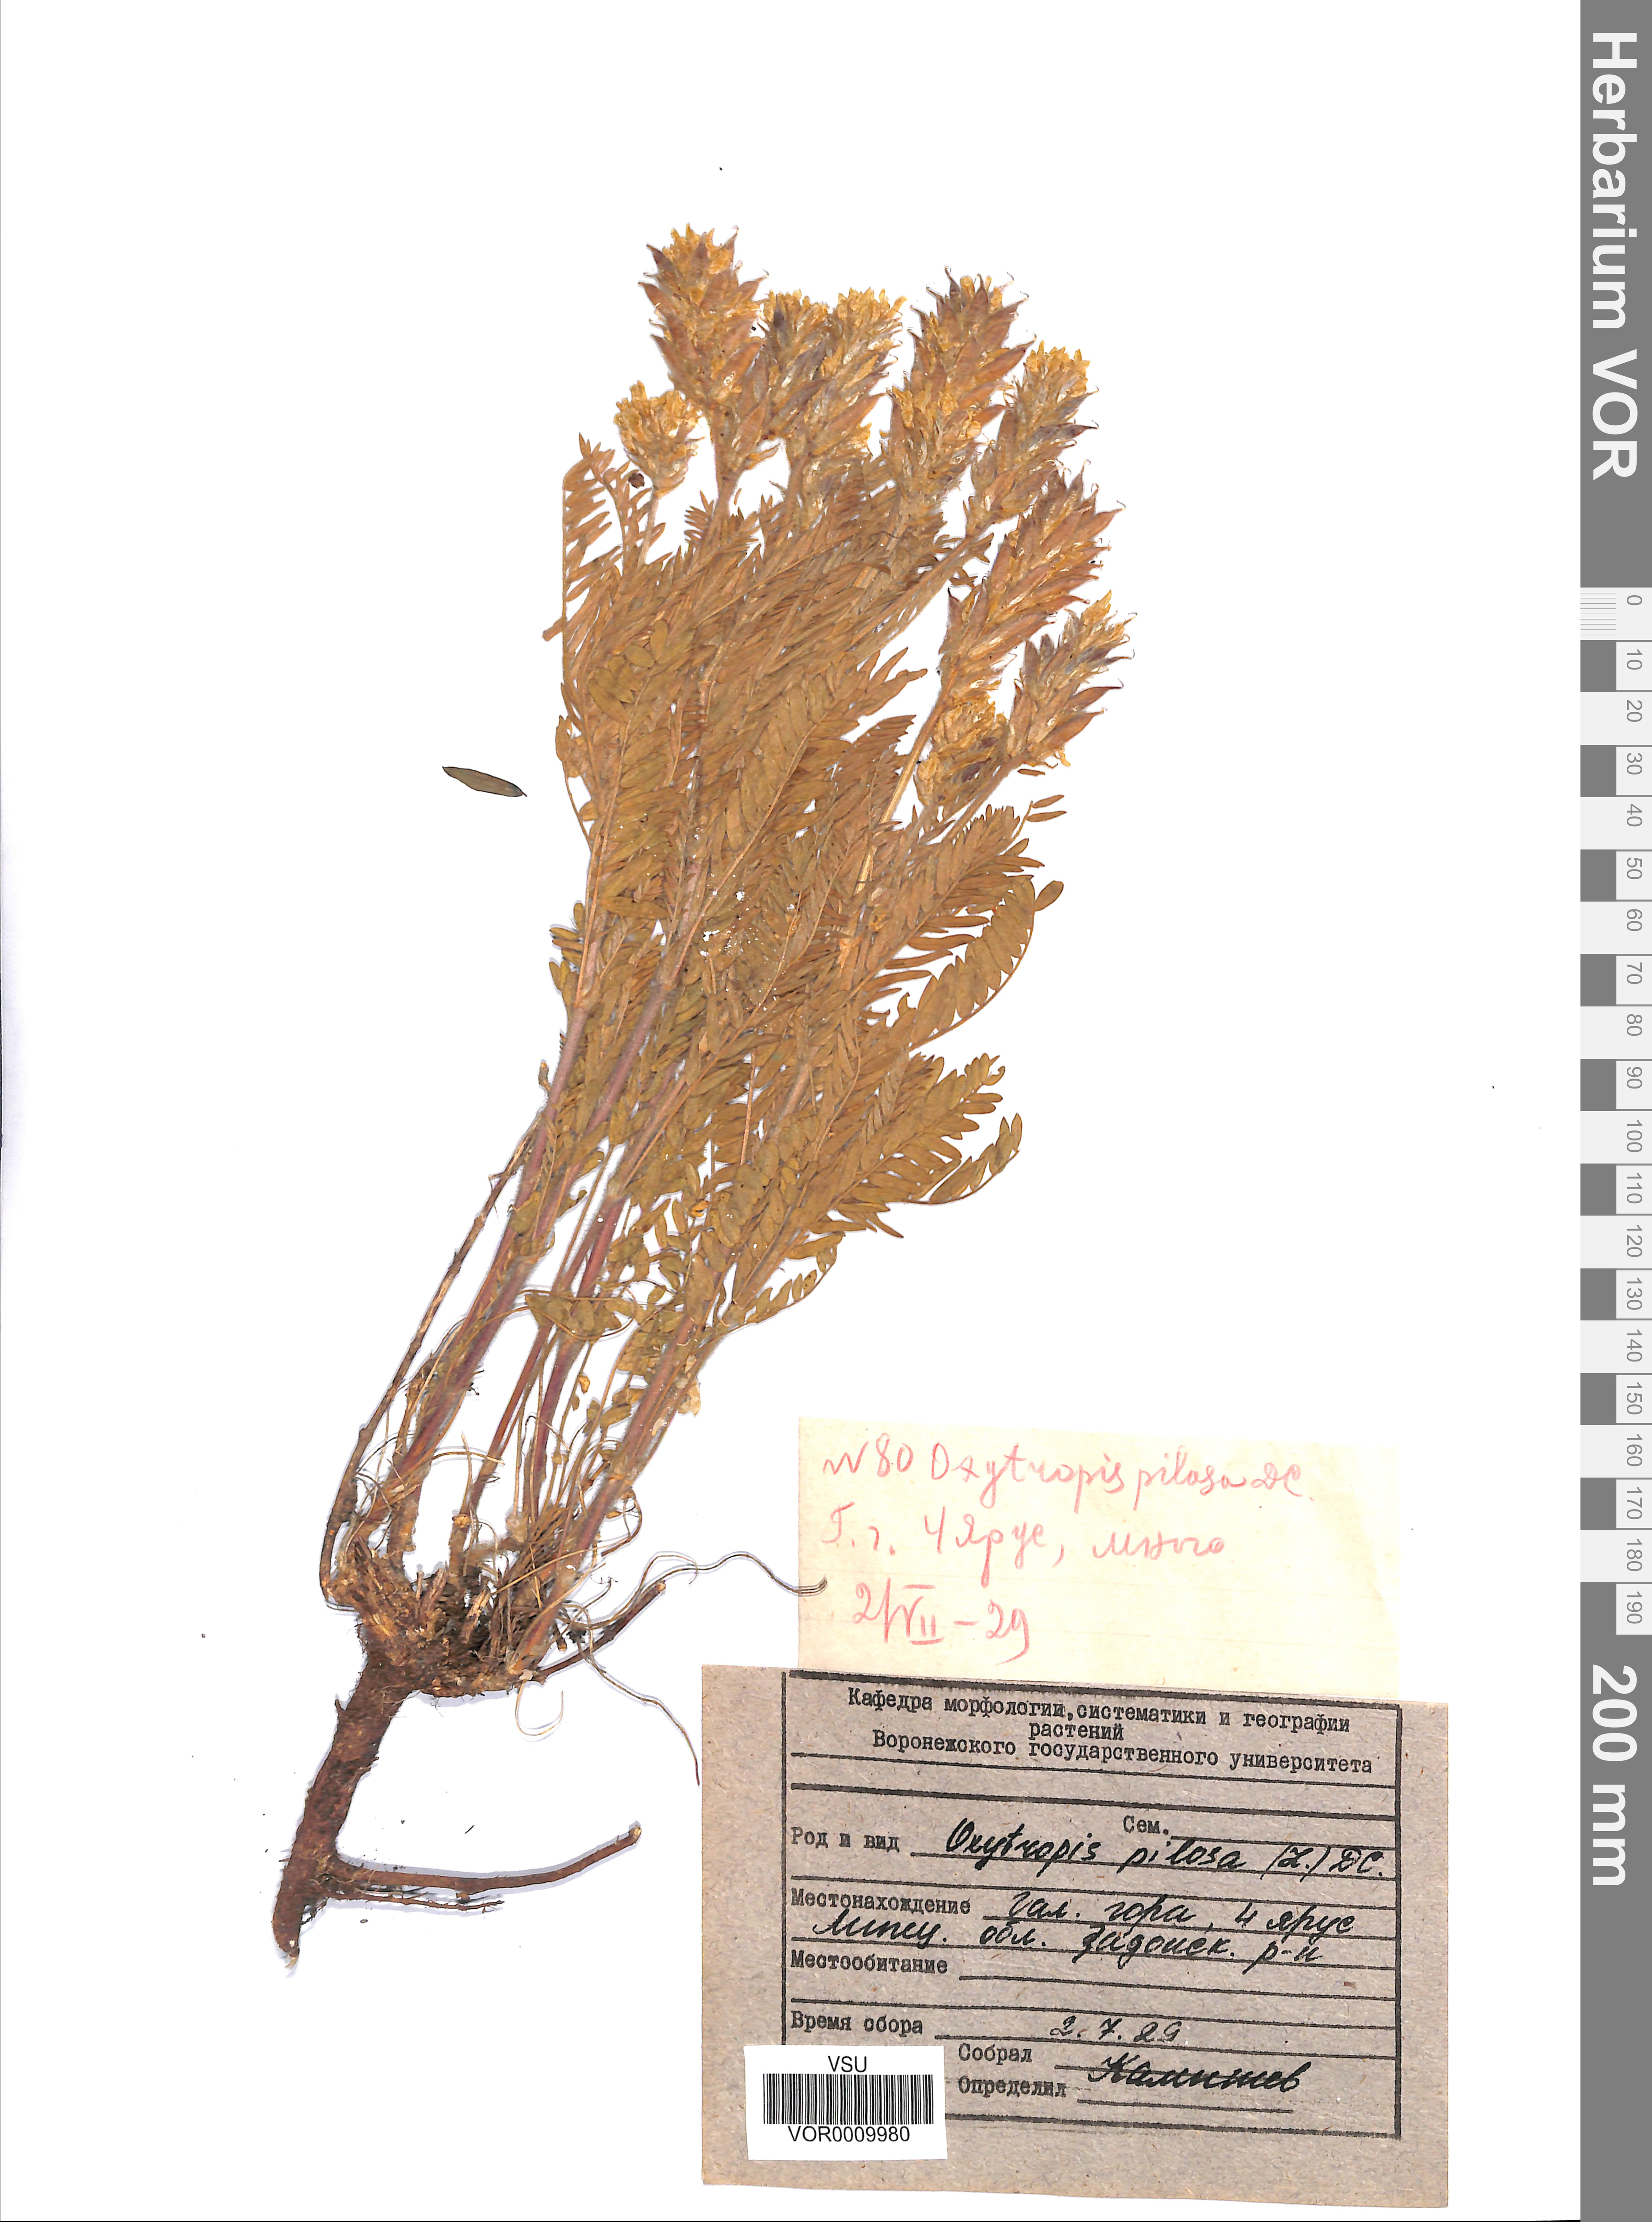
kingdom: Plantae
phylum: Tracheophyta
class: Magnoliopsida
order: Fabales
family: Fabaceae
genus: Oxytropis
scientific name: Oxytropis pilosa
